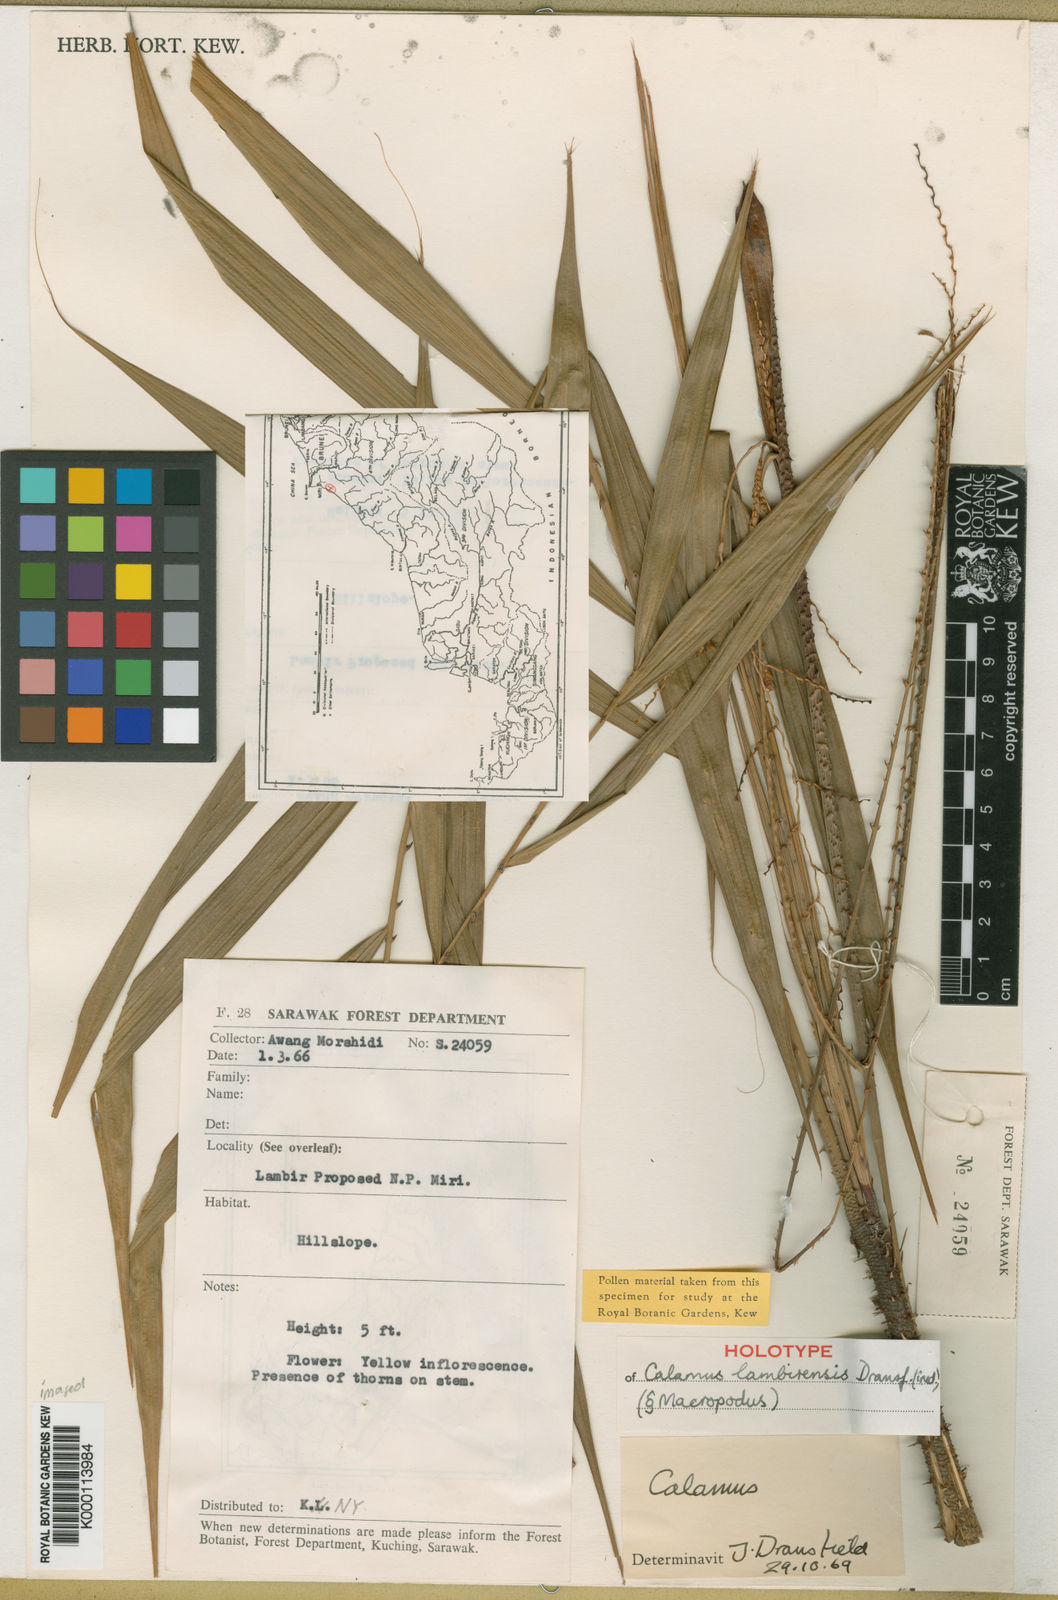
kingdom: Plantae
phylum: Tracheophyta
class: Liliopsida
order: Arecales
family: Arecaceae
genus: Calamus
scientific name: Calamus lambirensis
